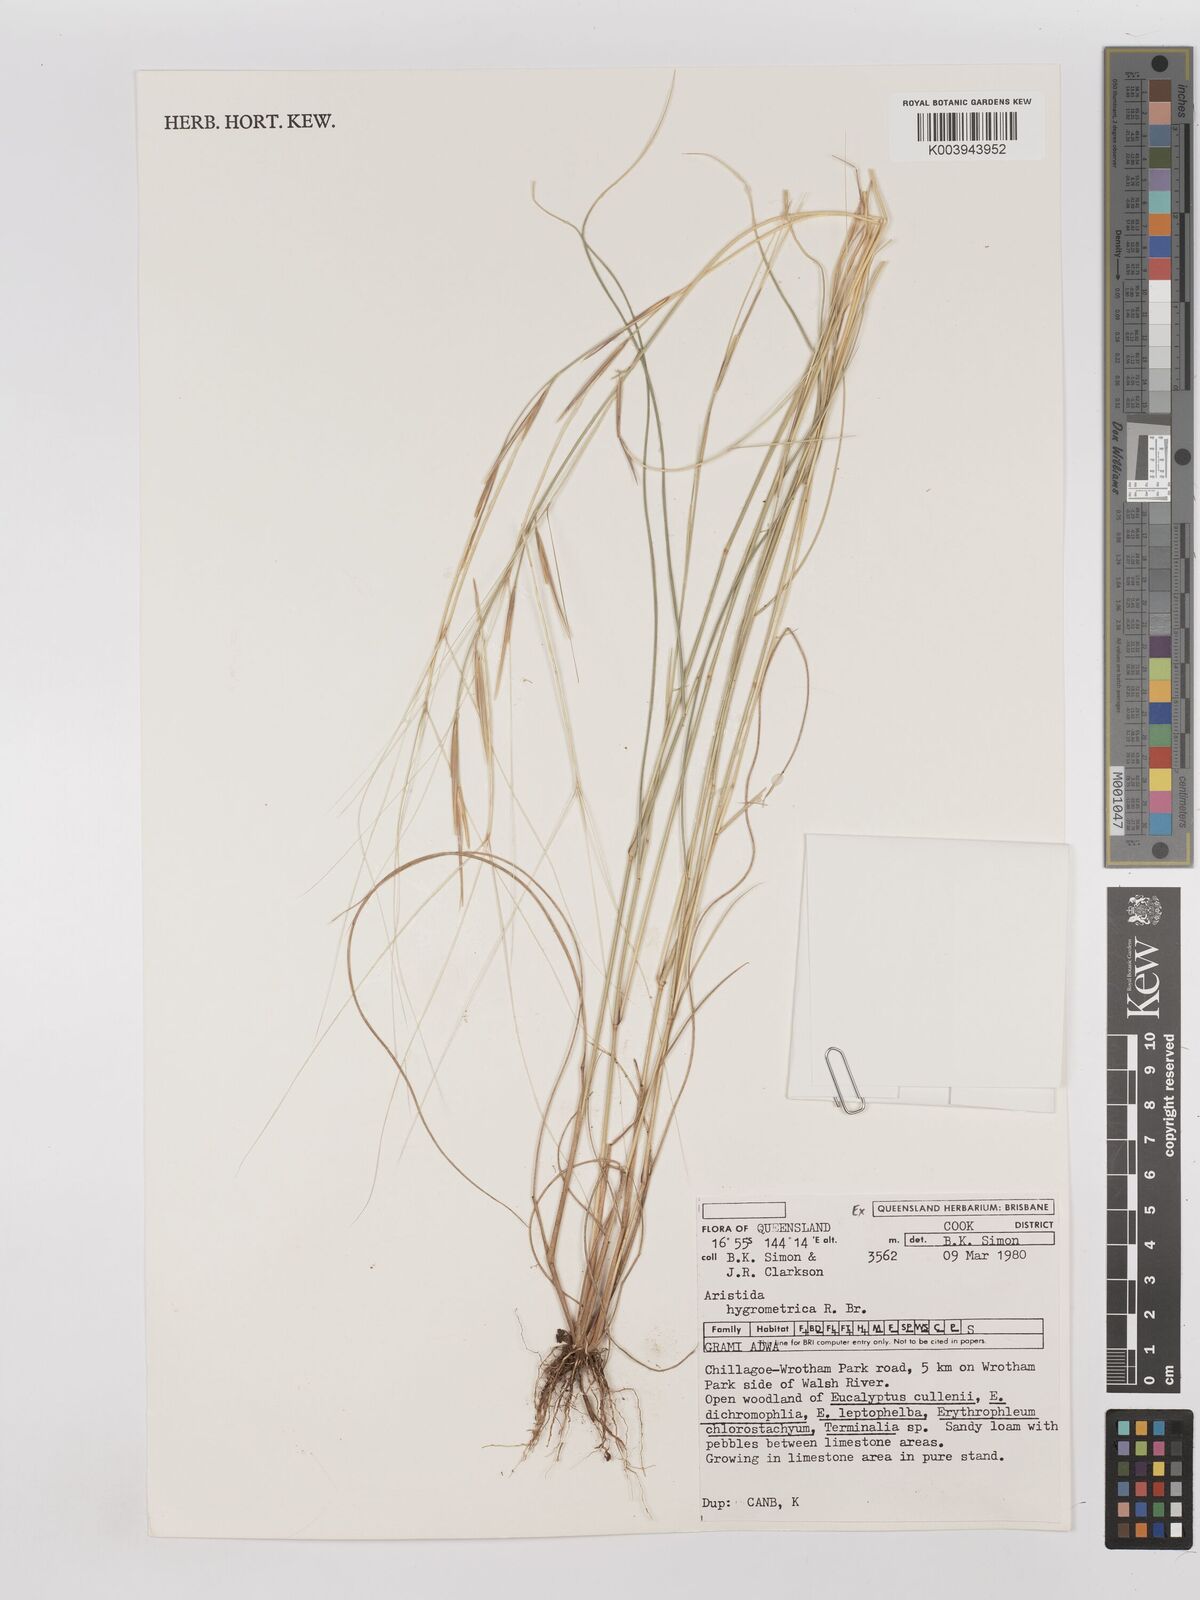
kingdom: Plantae
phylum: Tracheophyta
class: Liliopsida
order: Poales
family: Poaceae
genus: Aristida
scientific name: Aristida hygrometrica
